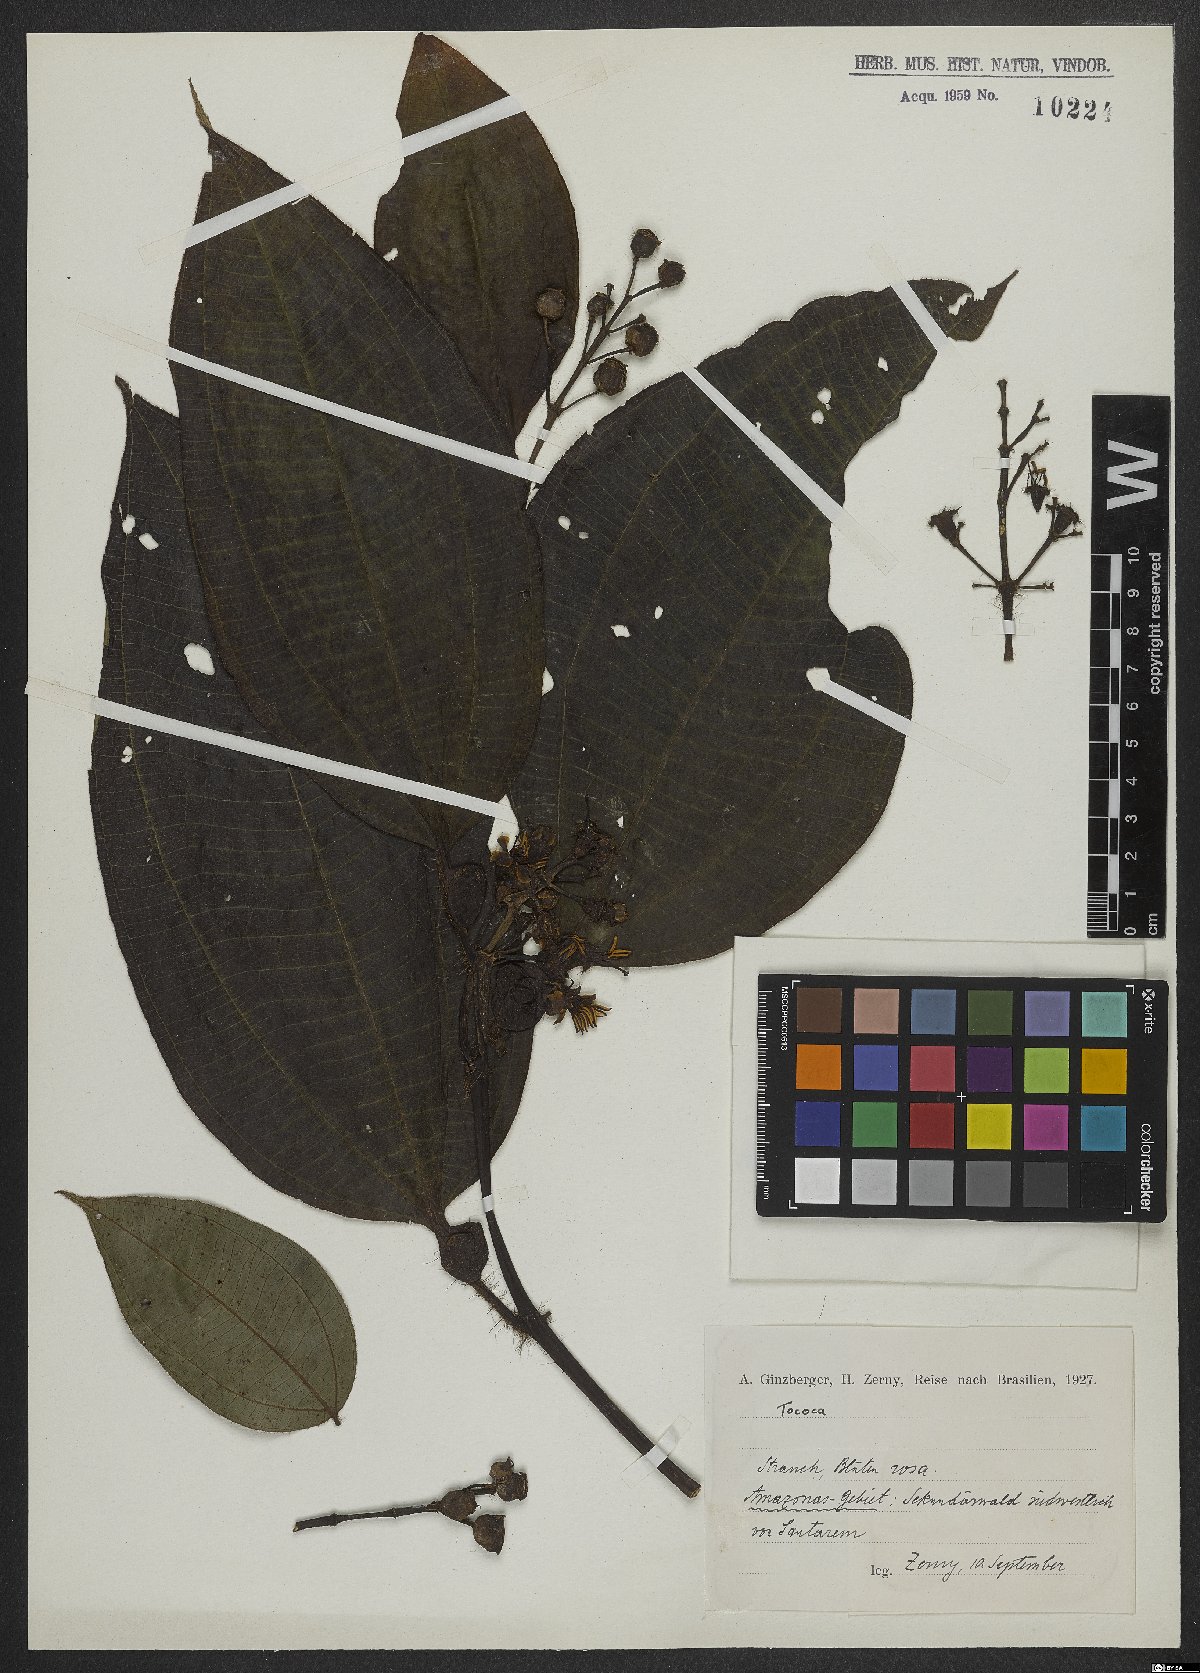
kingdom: Plantae
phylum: Tracheophyta
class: Magnoliopsida
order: Myrtales
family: Melastomataceae
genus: Miconia
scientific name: Miconia
